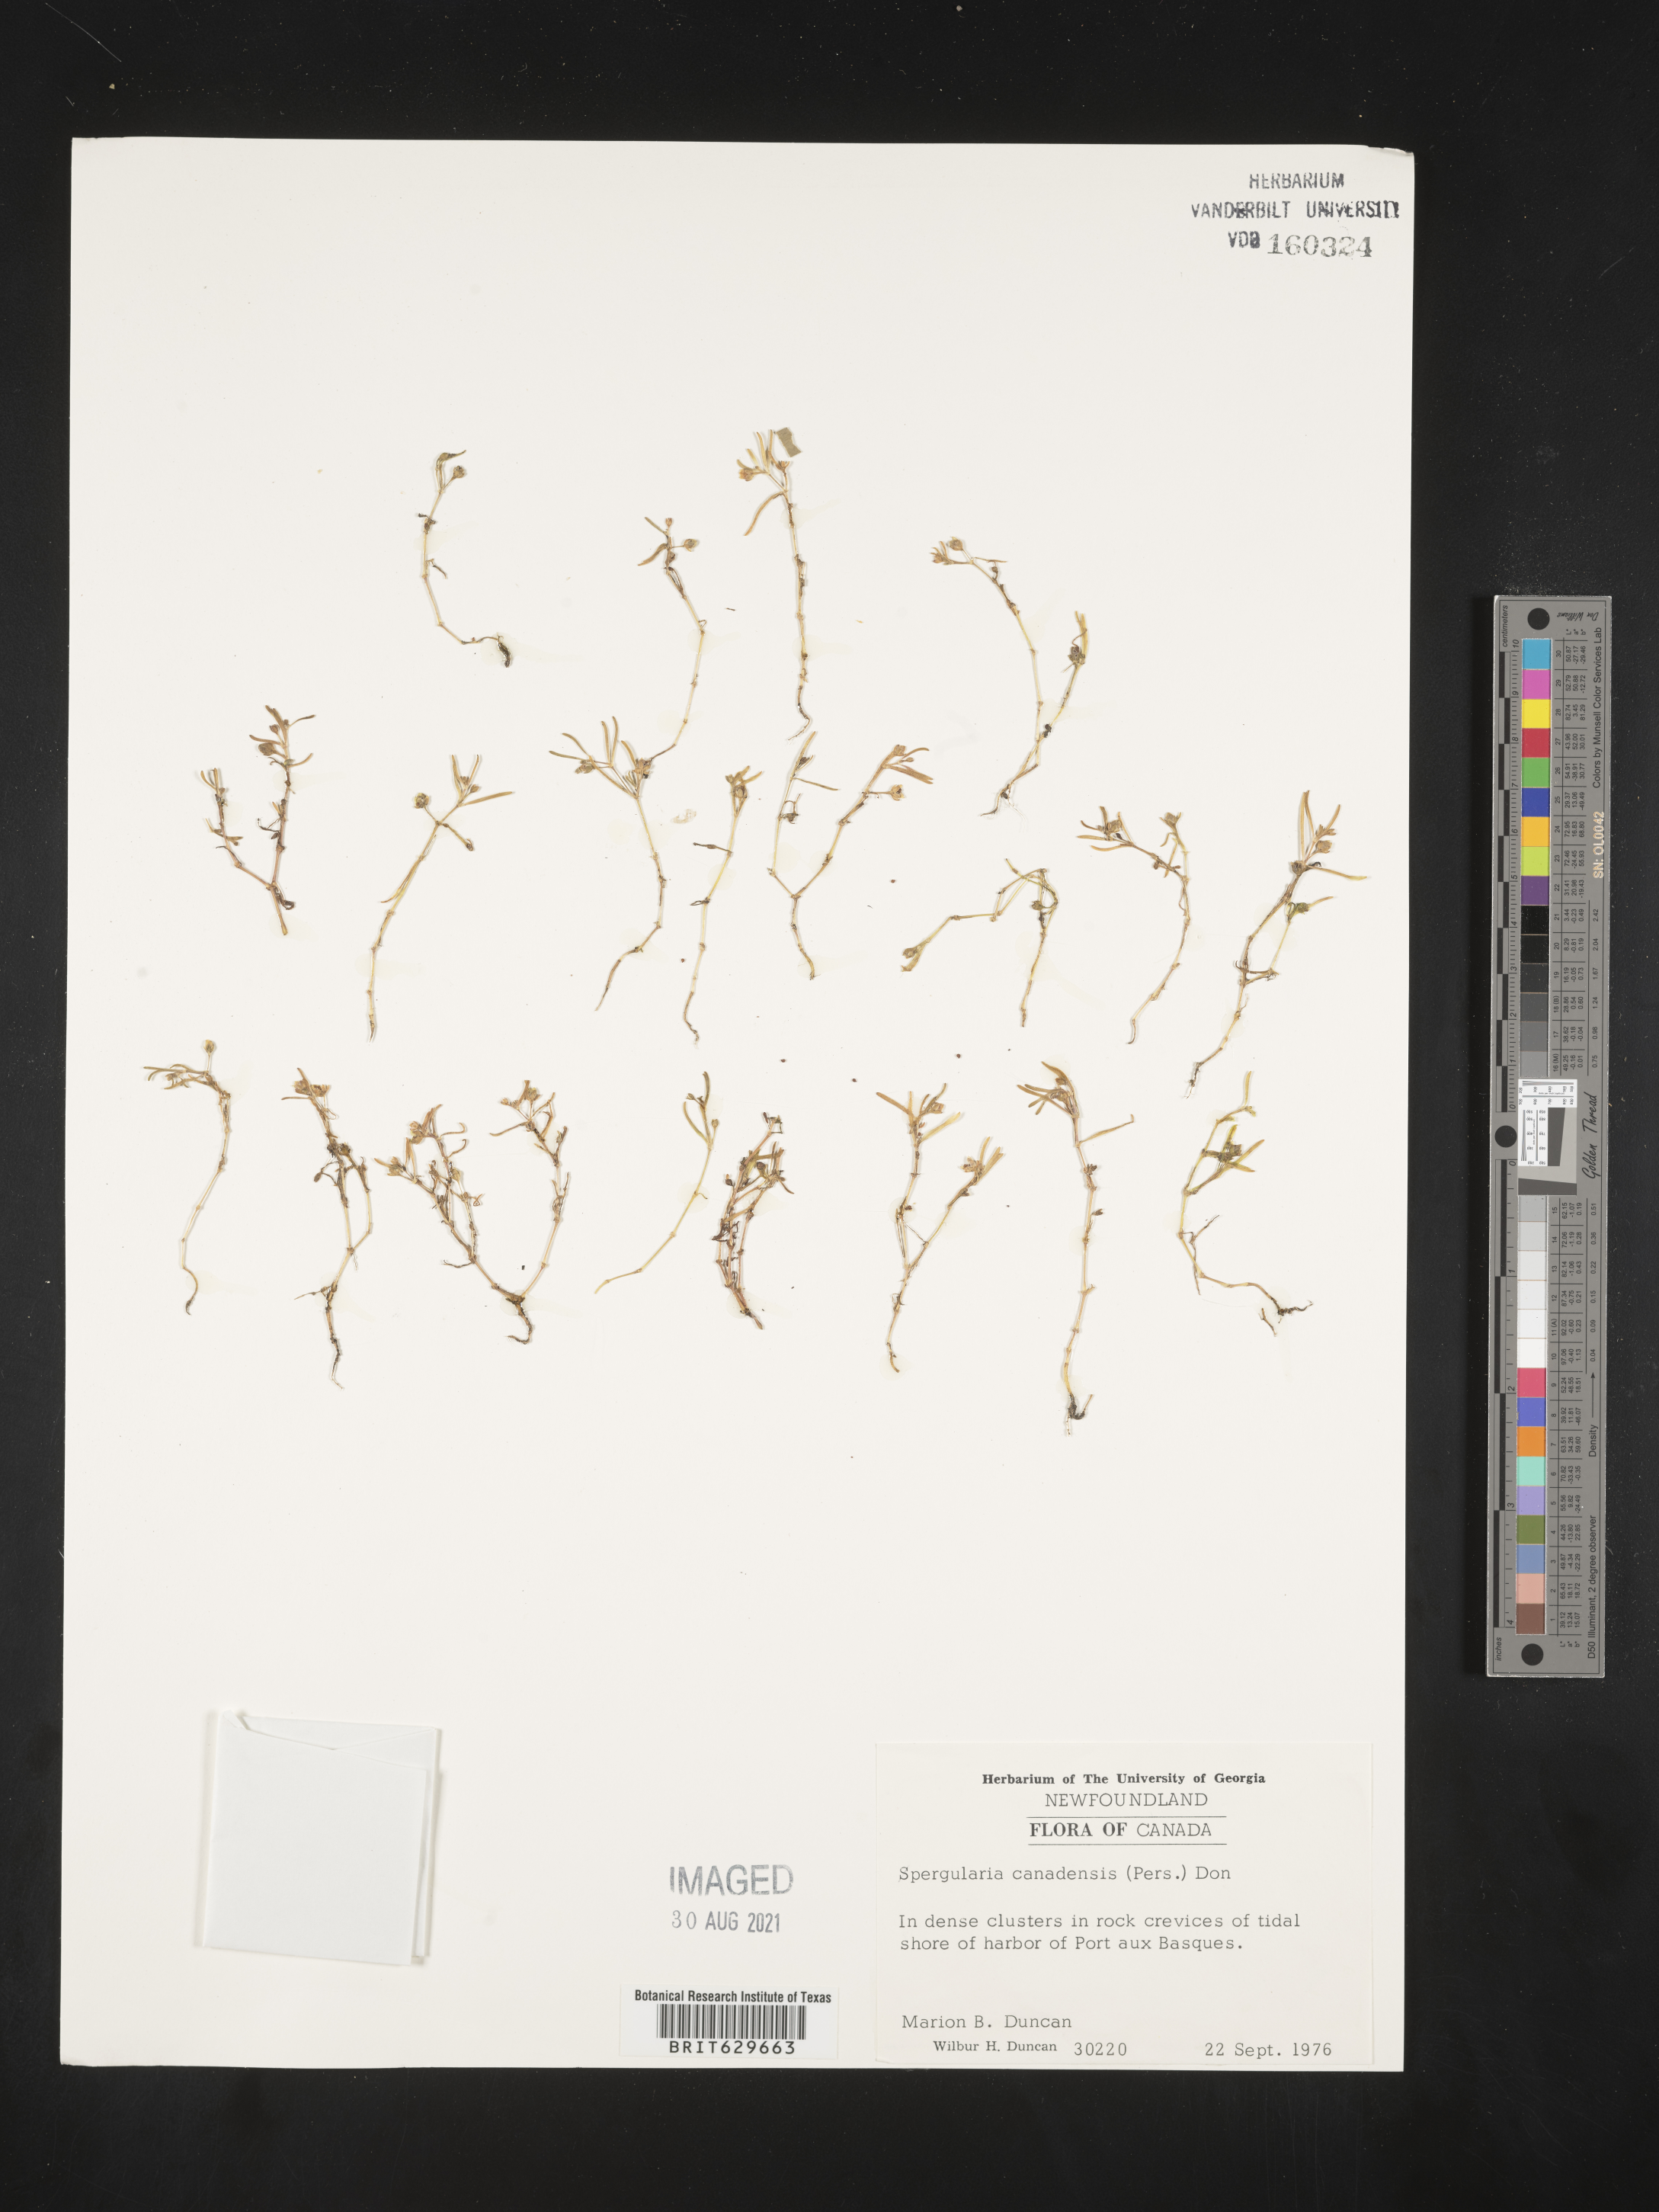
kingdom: Plantae
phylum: Tracheophyta
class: Magnoliopsida
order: Caryophyllales
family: Caryophyllaceae
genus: Spergularia
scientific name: Spergularia canadensis
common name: Canada sand-spurrey
